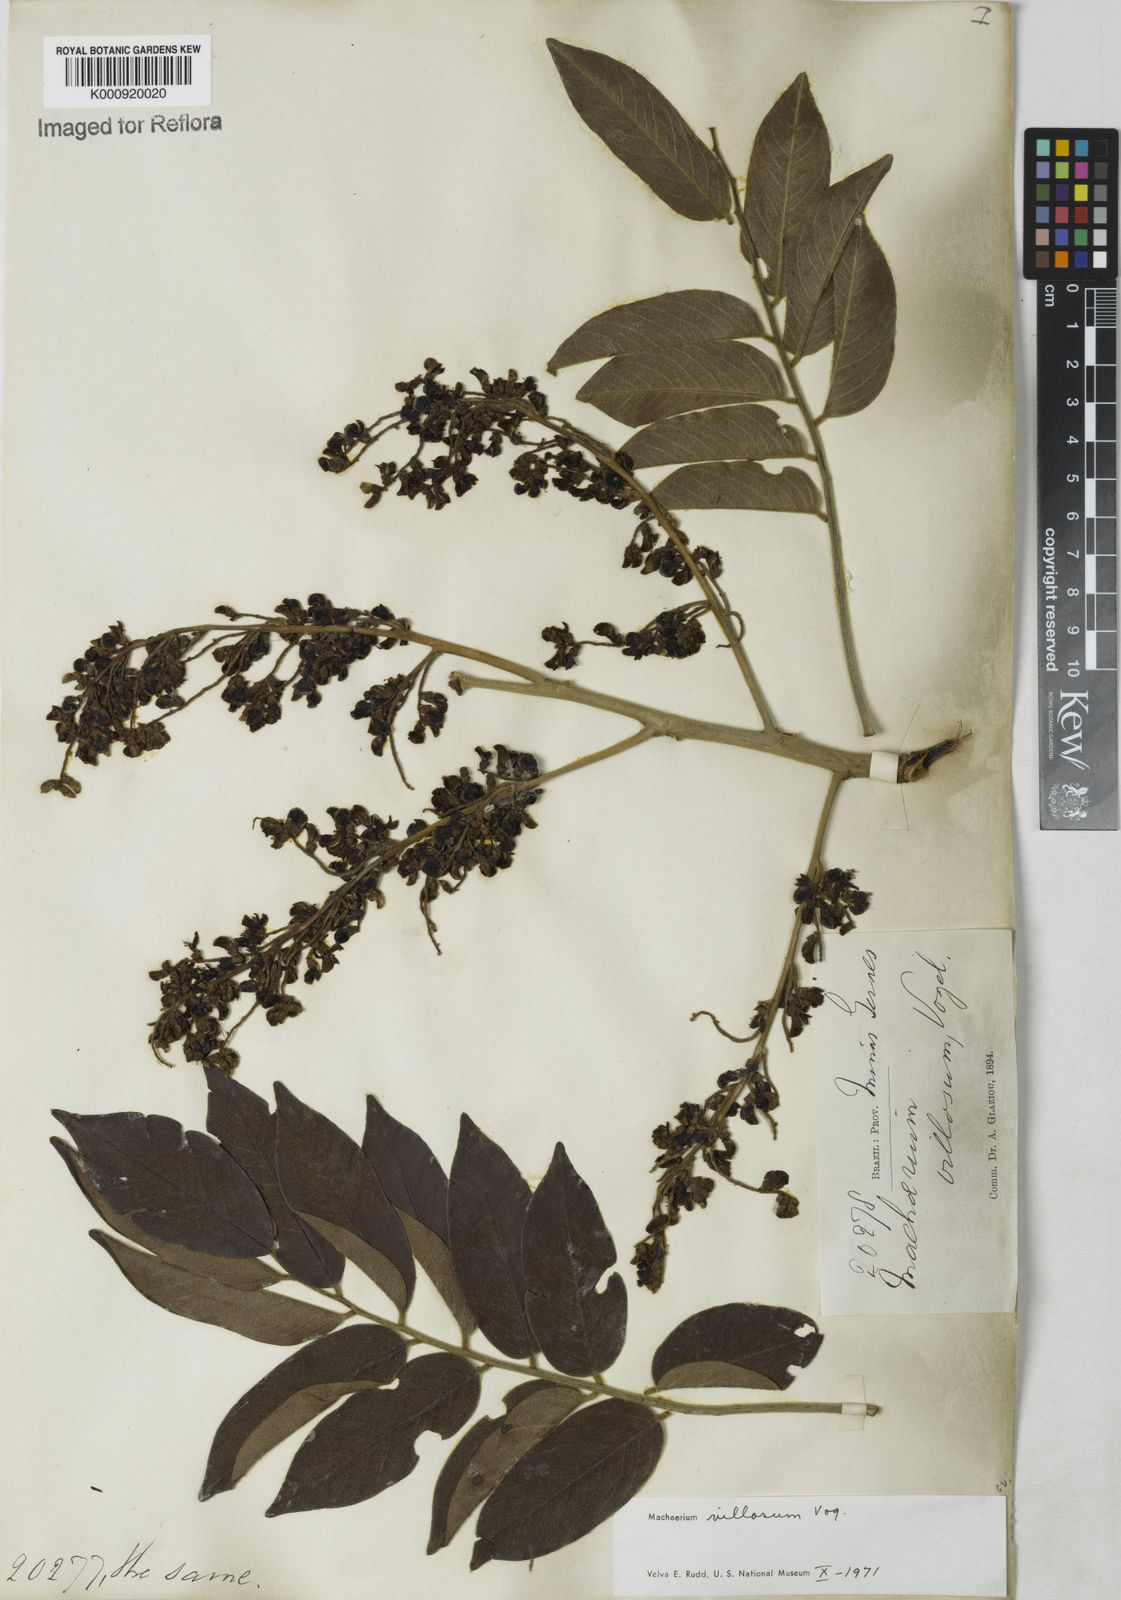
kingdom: Plantae
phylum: Tracheophyta
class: Magnoliopsida
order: Fabales
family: Fabaceae
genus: Machaerium
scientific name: Machaerium villosum
